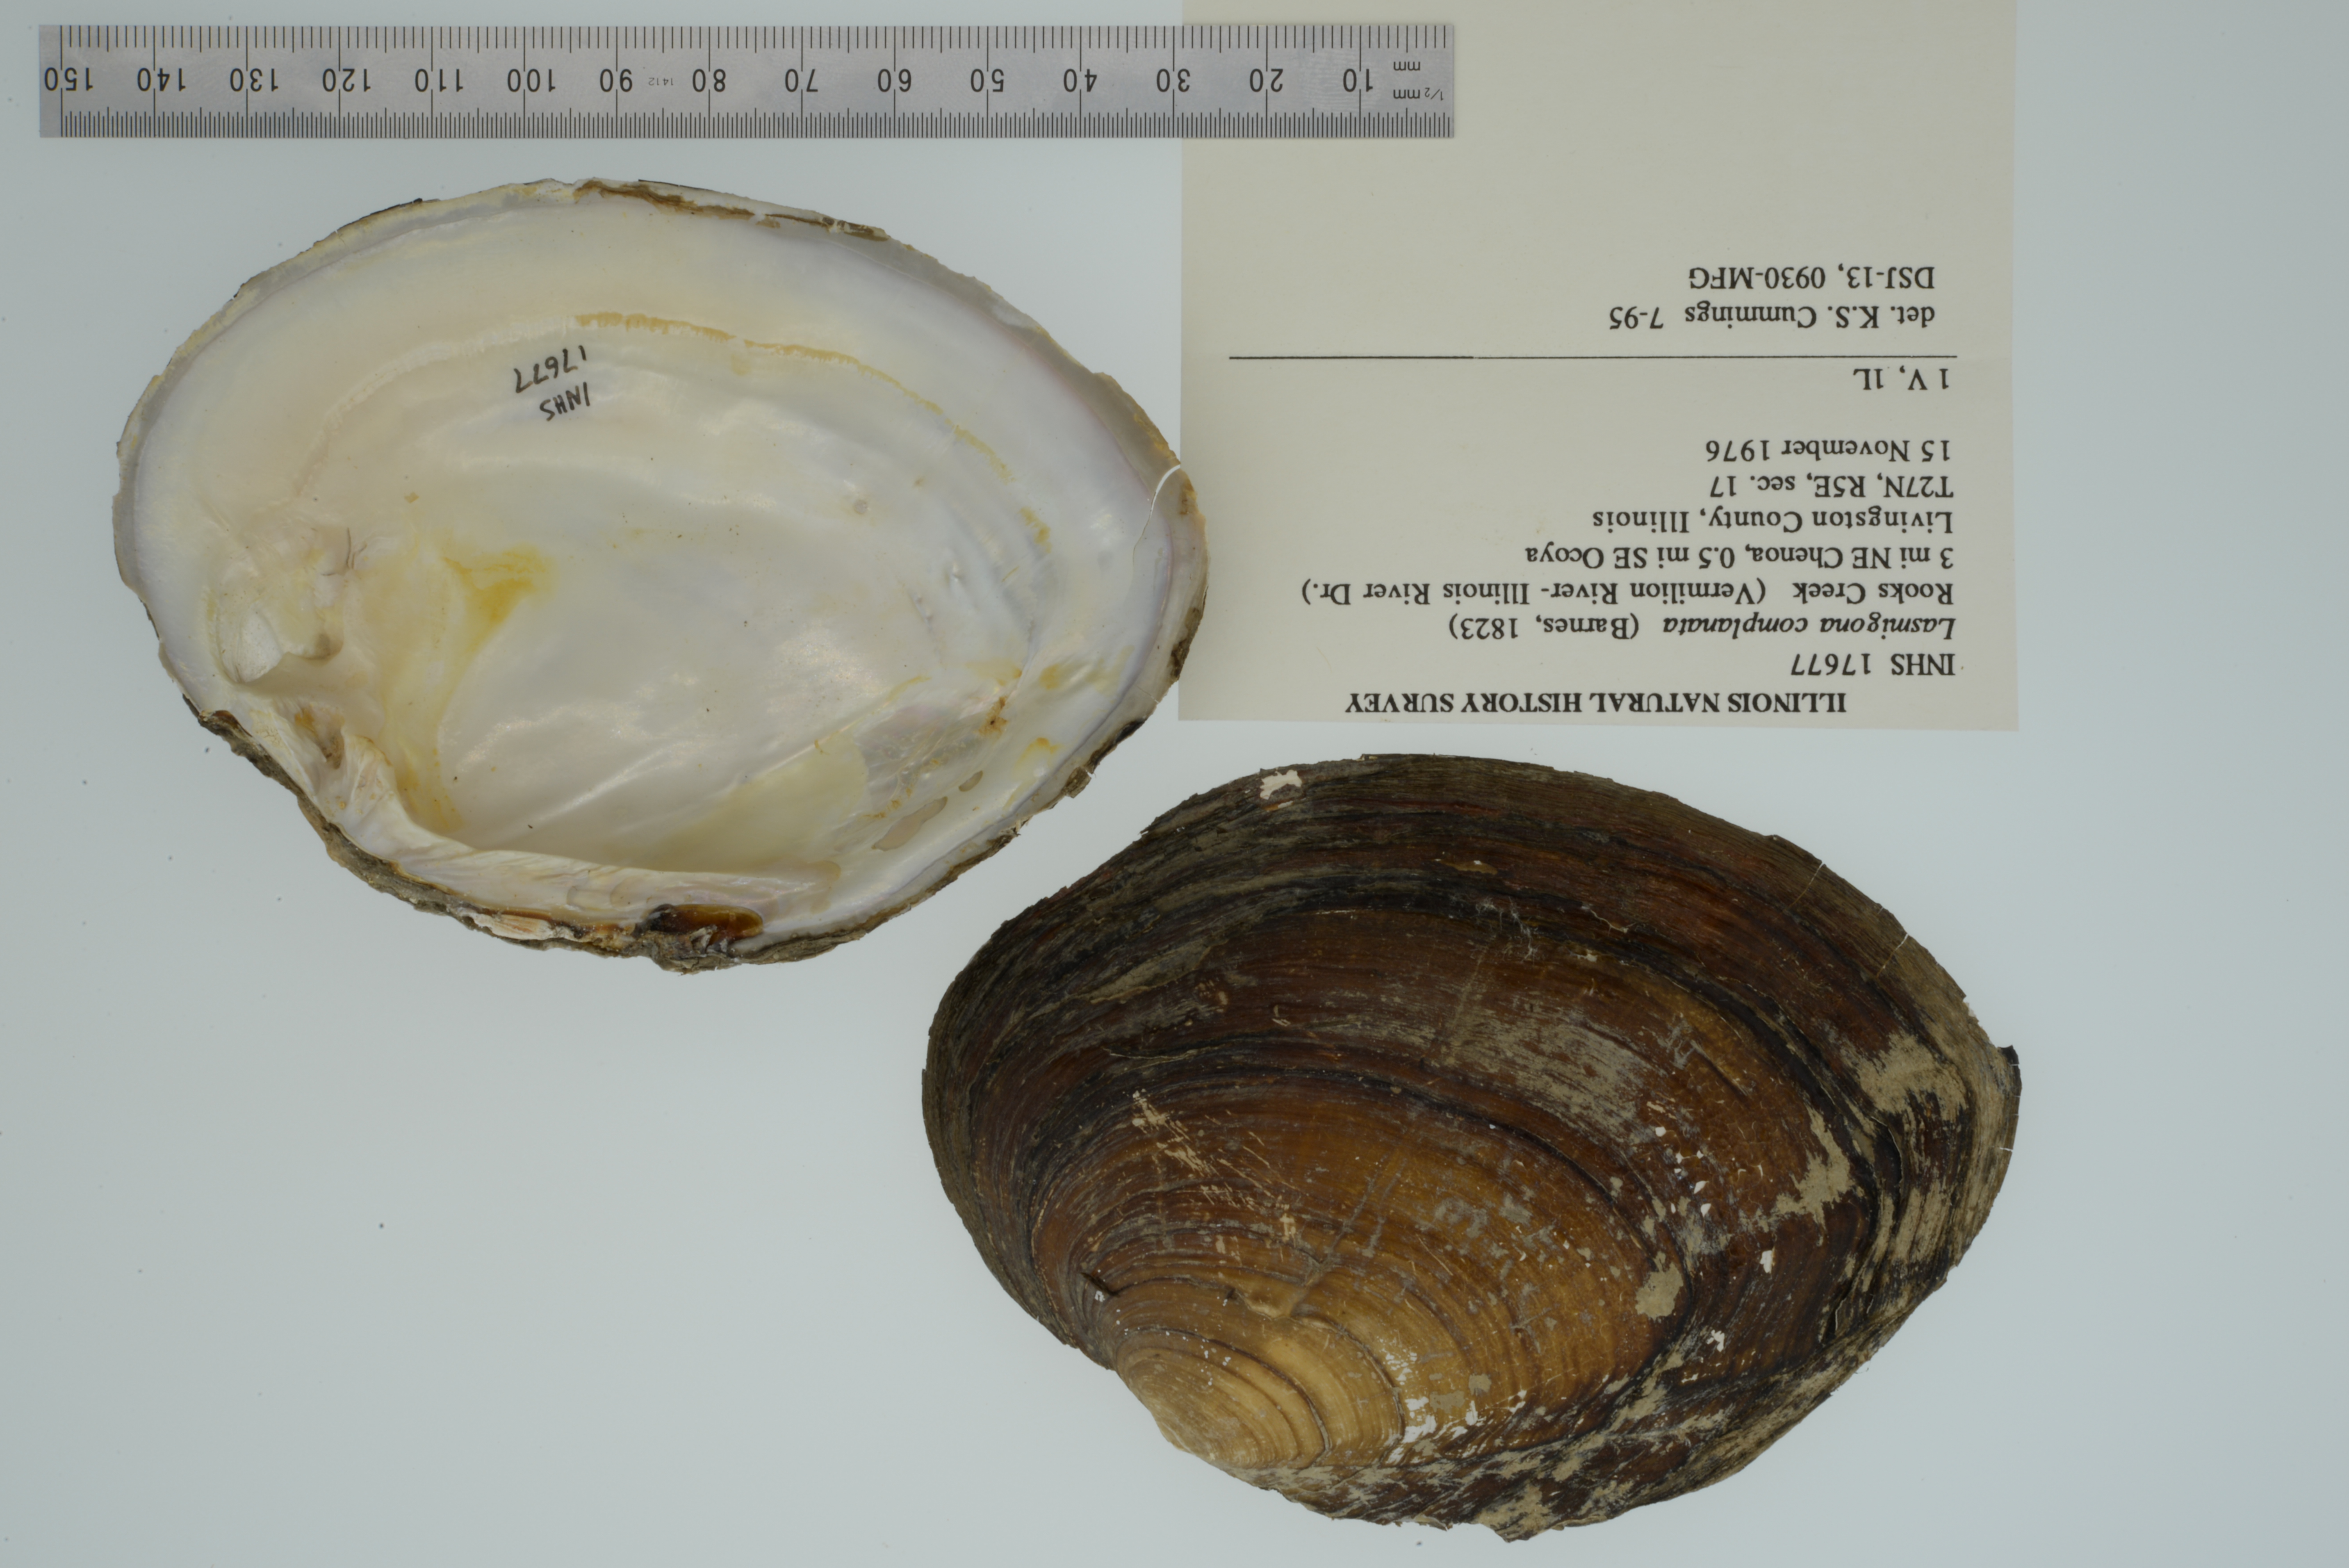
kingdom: Animalia
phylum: Mollusca
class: Bivalvia
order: Unionida
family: Unionidae
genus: Lasmigona
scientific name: Lasmigona complanata
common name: White heelsplitter
